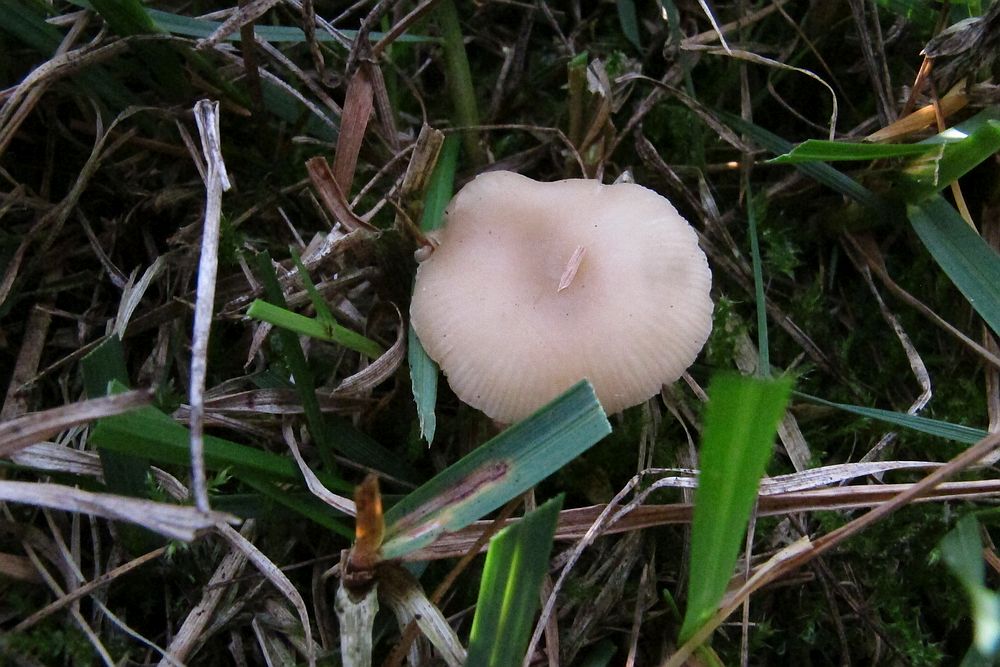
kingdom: Fungi
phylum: Basidiomycota
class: Agaricomycetes
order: Agaricales
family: Tricholomataceae
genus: Clitocybe
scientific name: Clitocybe diatreta
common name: kødfarvet tragthat
